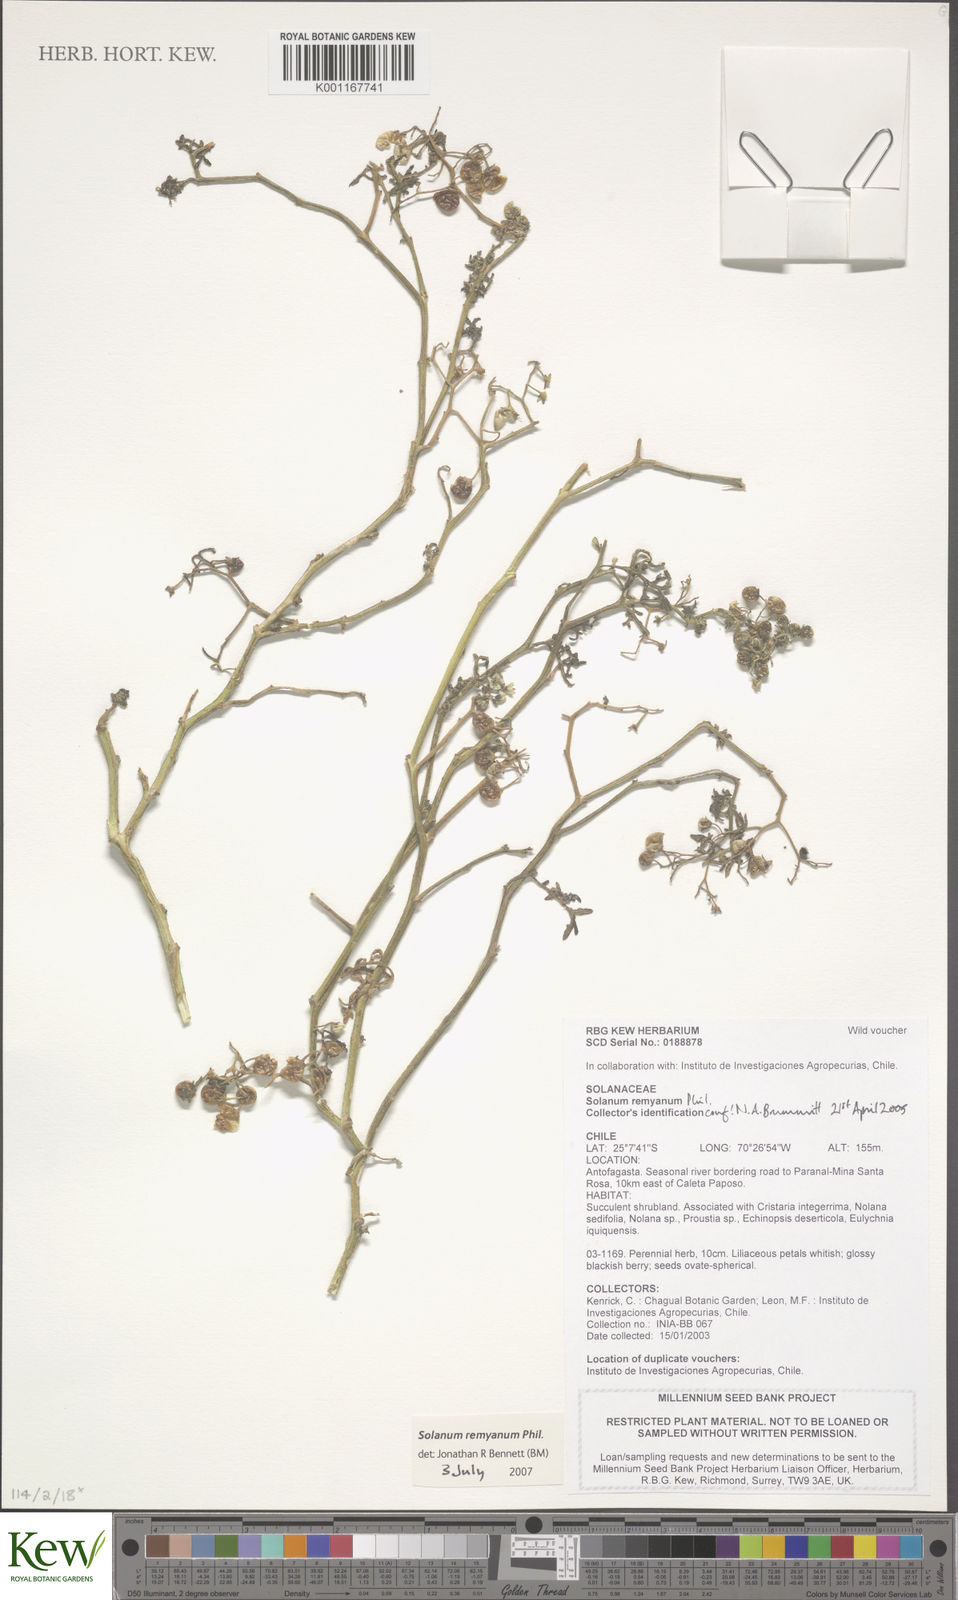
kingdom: Plantae
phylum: Tracheophyta
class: Magnoliopsida
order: Solanales
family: Solanaceae
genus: Solanum
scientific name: Solanum remyanum
